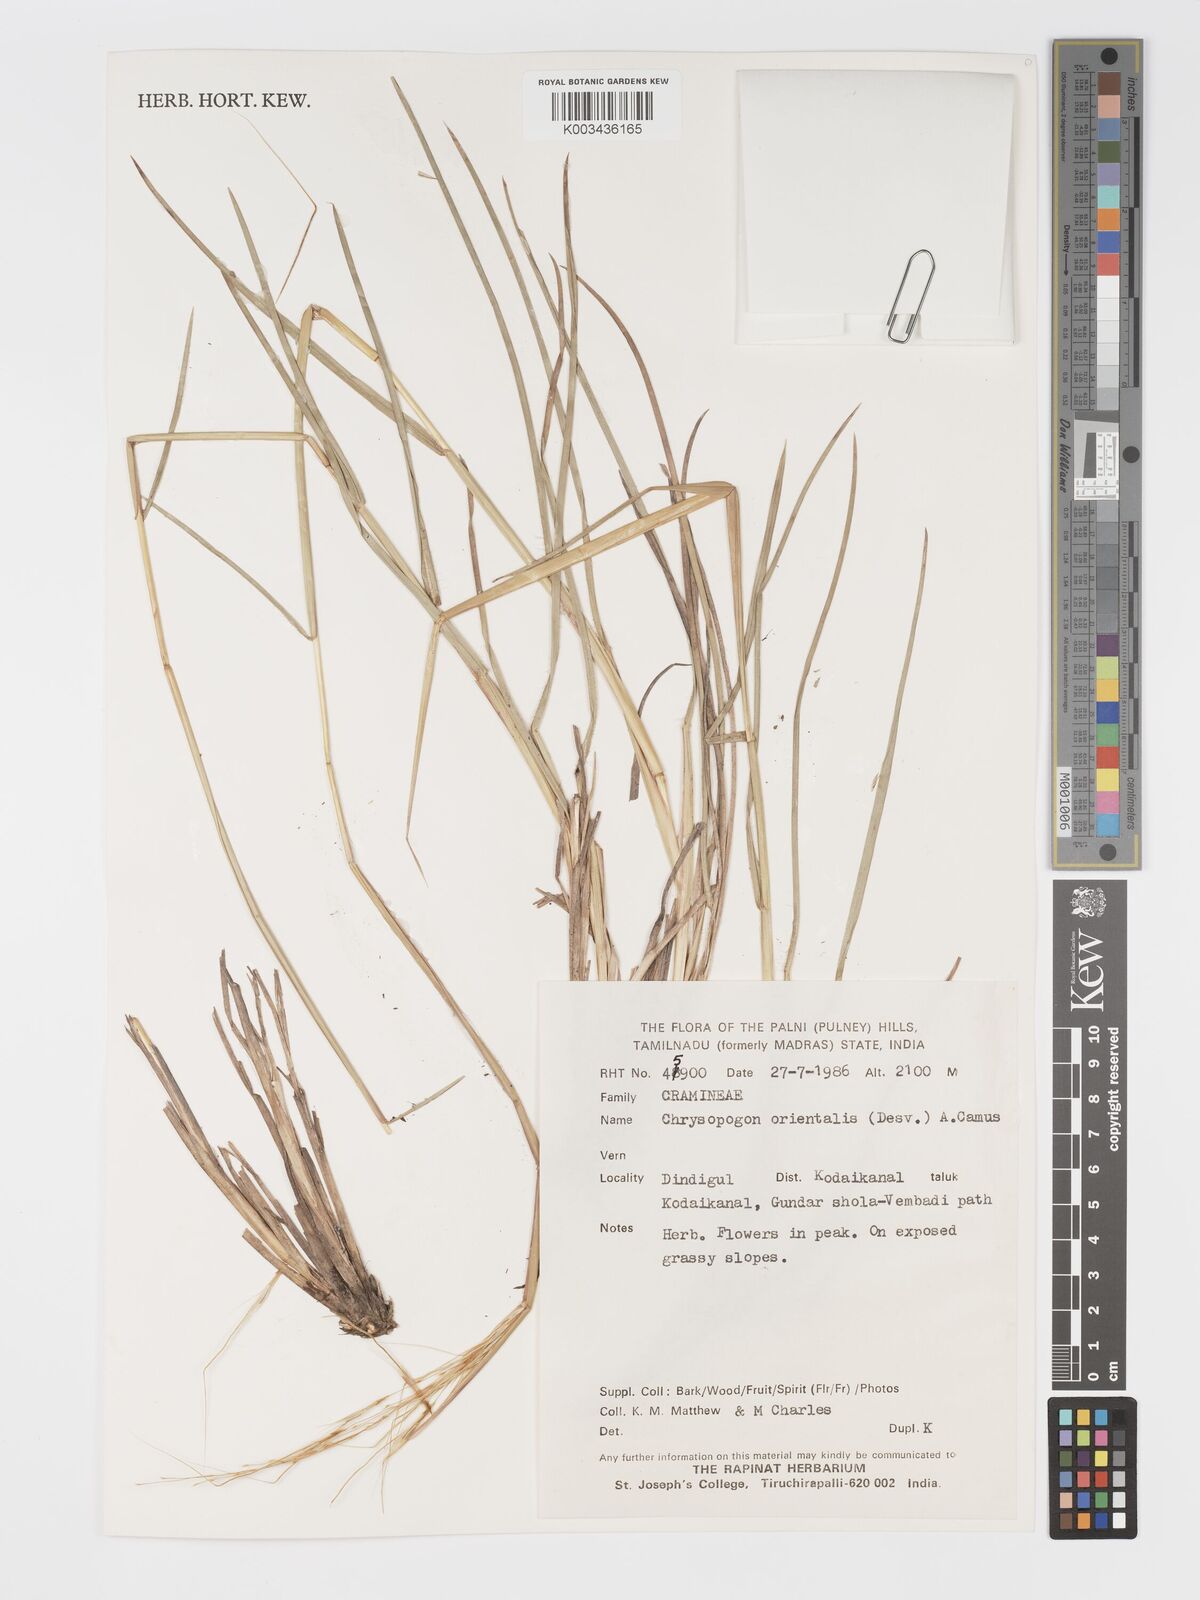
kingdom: Plantae
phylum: Tracheophyta
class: Liliopsida
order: Poales
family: Poaceae
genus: Chrysopogon
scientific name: Chrysopogon orientalis
